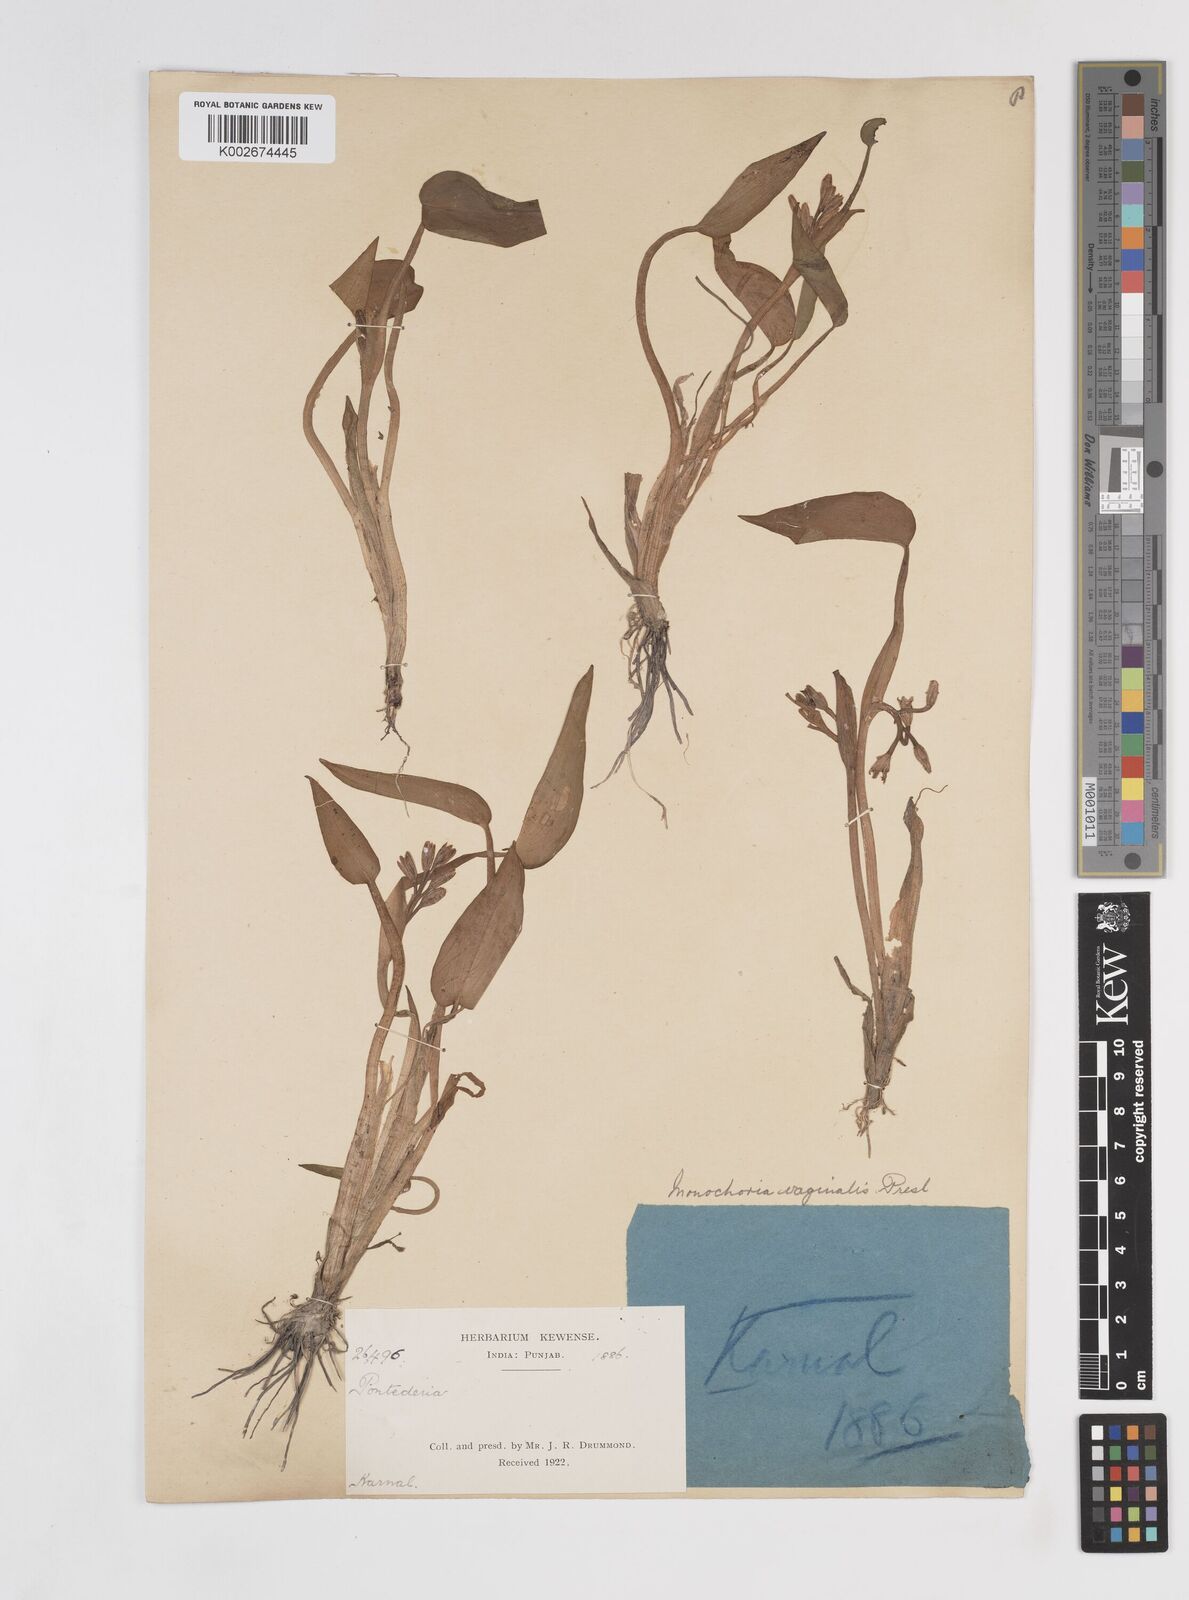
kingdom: Plantae
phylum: Tracheophyta
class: Liliopsida
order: Commelinales
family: Pontederiaceae
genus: Pontederia
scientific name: Pontederia vaginalis
